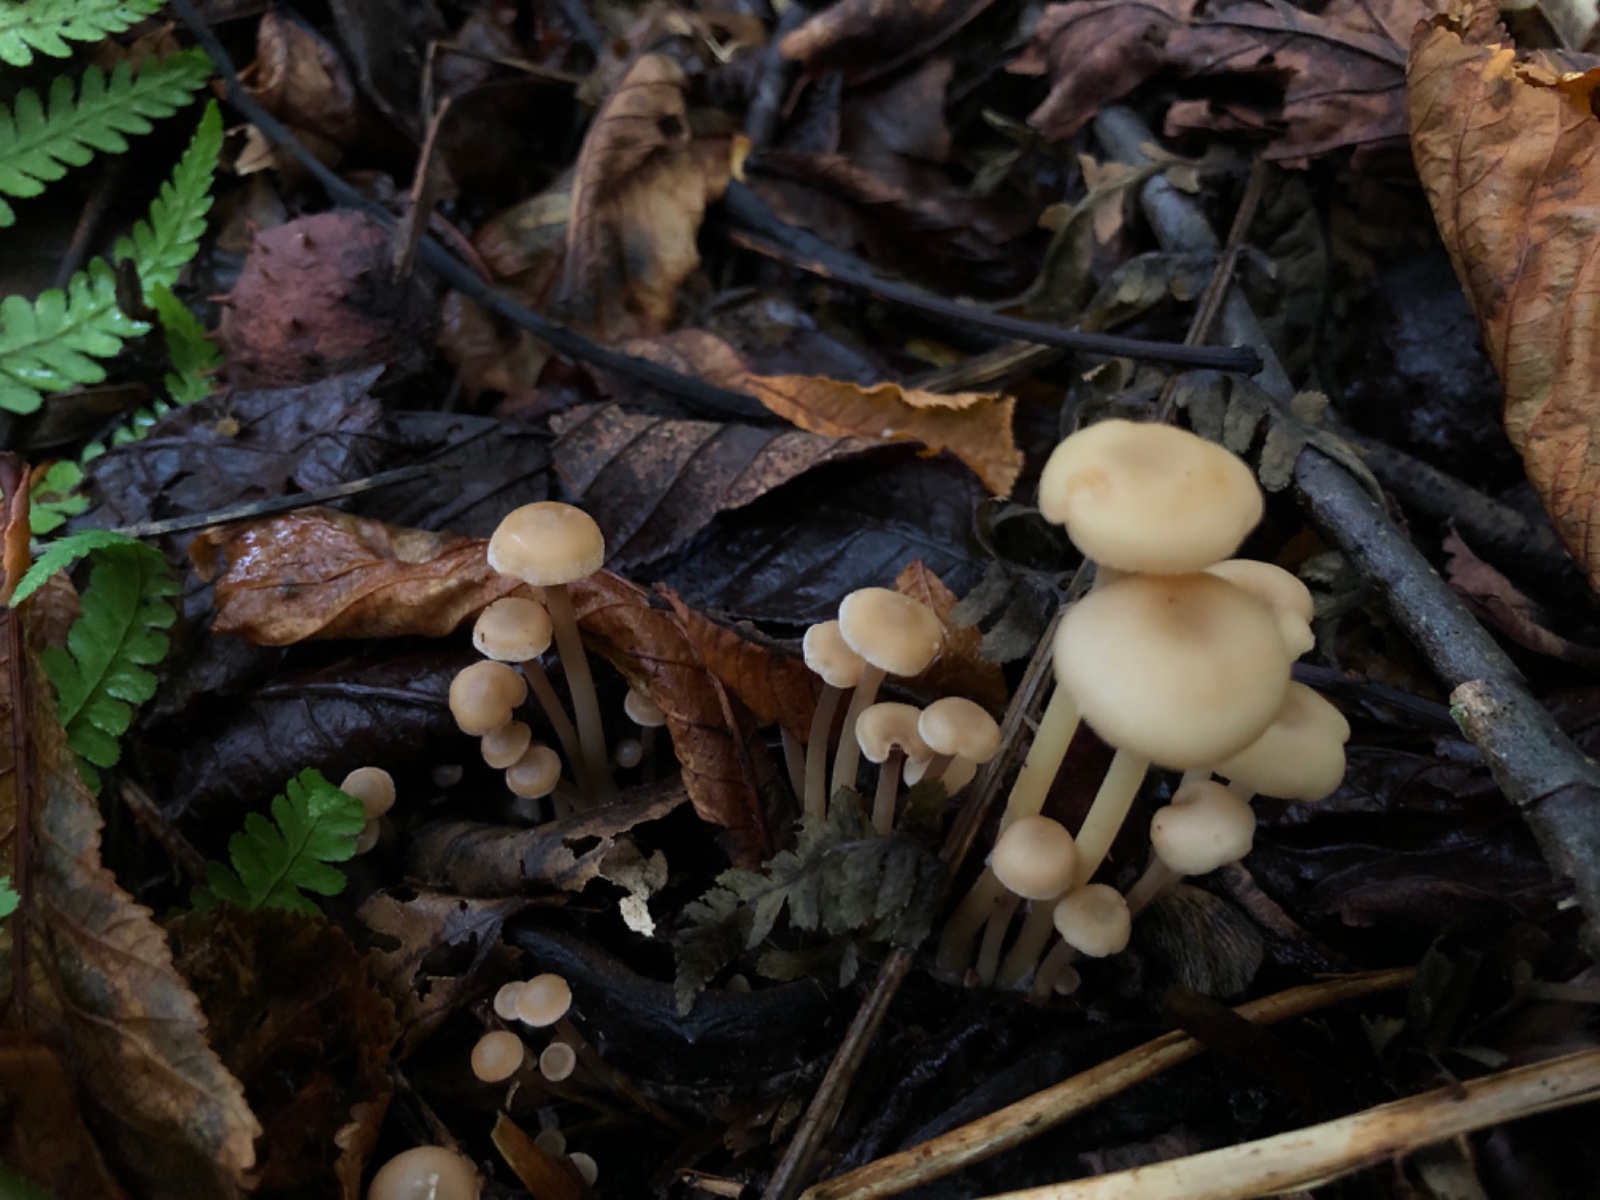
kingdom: Fungi
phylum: Basidiomycota
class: Agaricomycetes
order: Agaricales
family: Omphalotaceae
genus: Collybiopsis
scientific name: Collybiopsis confluens
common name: knippe-fladhat
